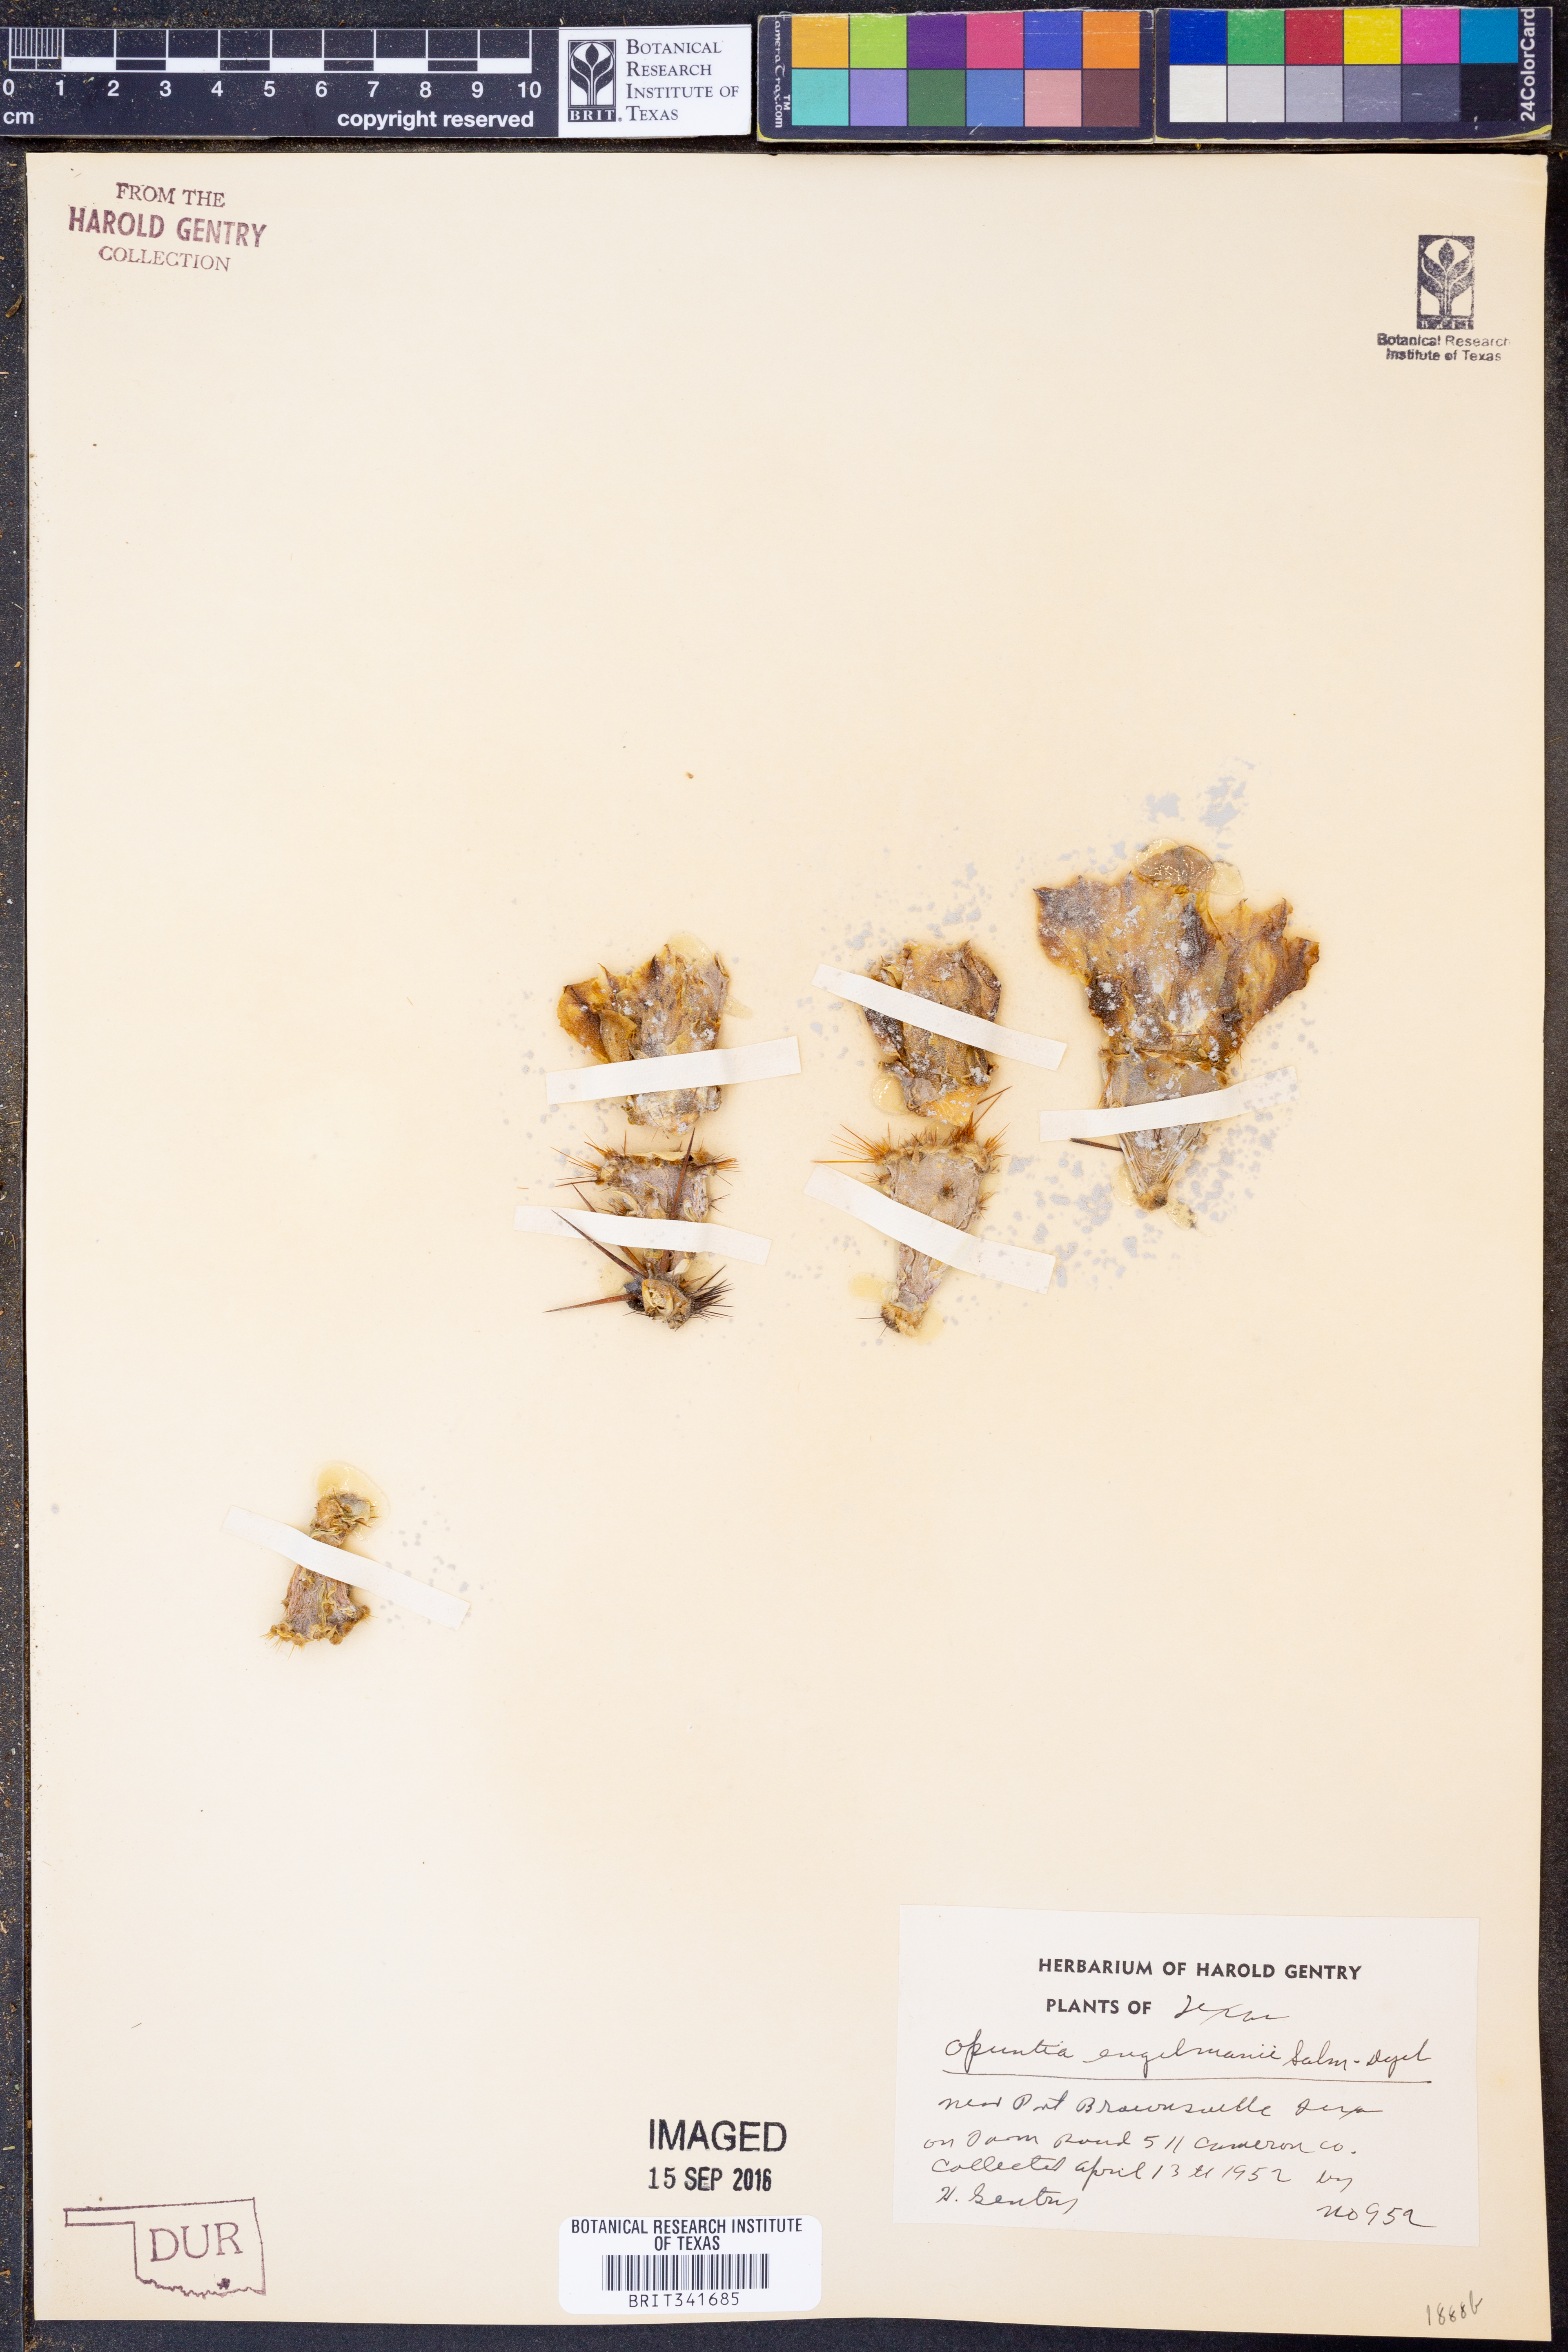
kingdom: Plantae
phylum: Tracheophyta
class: Magnoliopsida
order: Caryophyllales
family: Cactaceae
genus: Opuntia
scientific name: Opuntia engelmannii
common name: Cactus-apple
